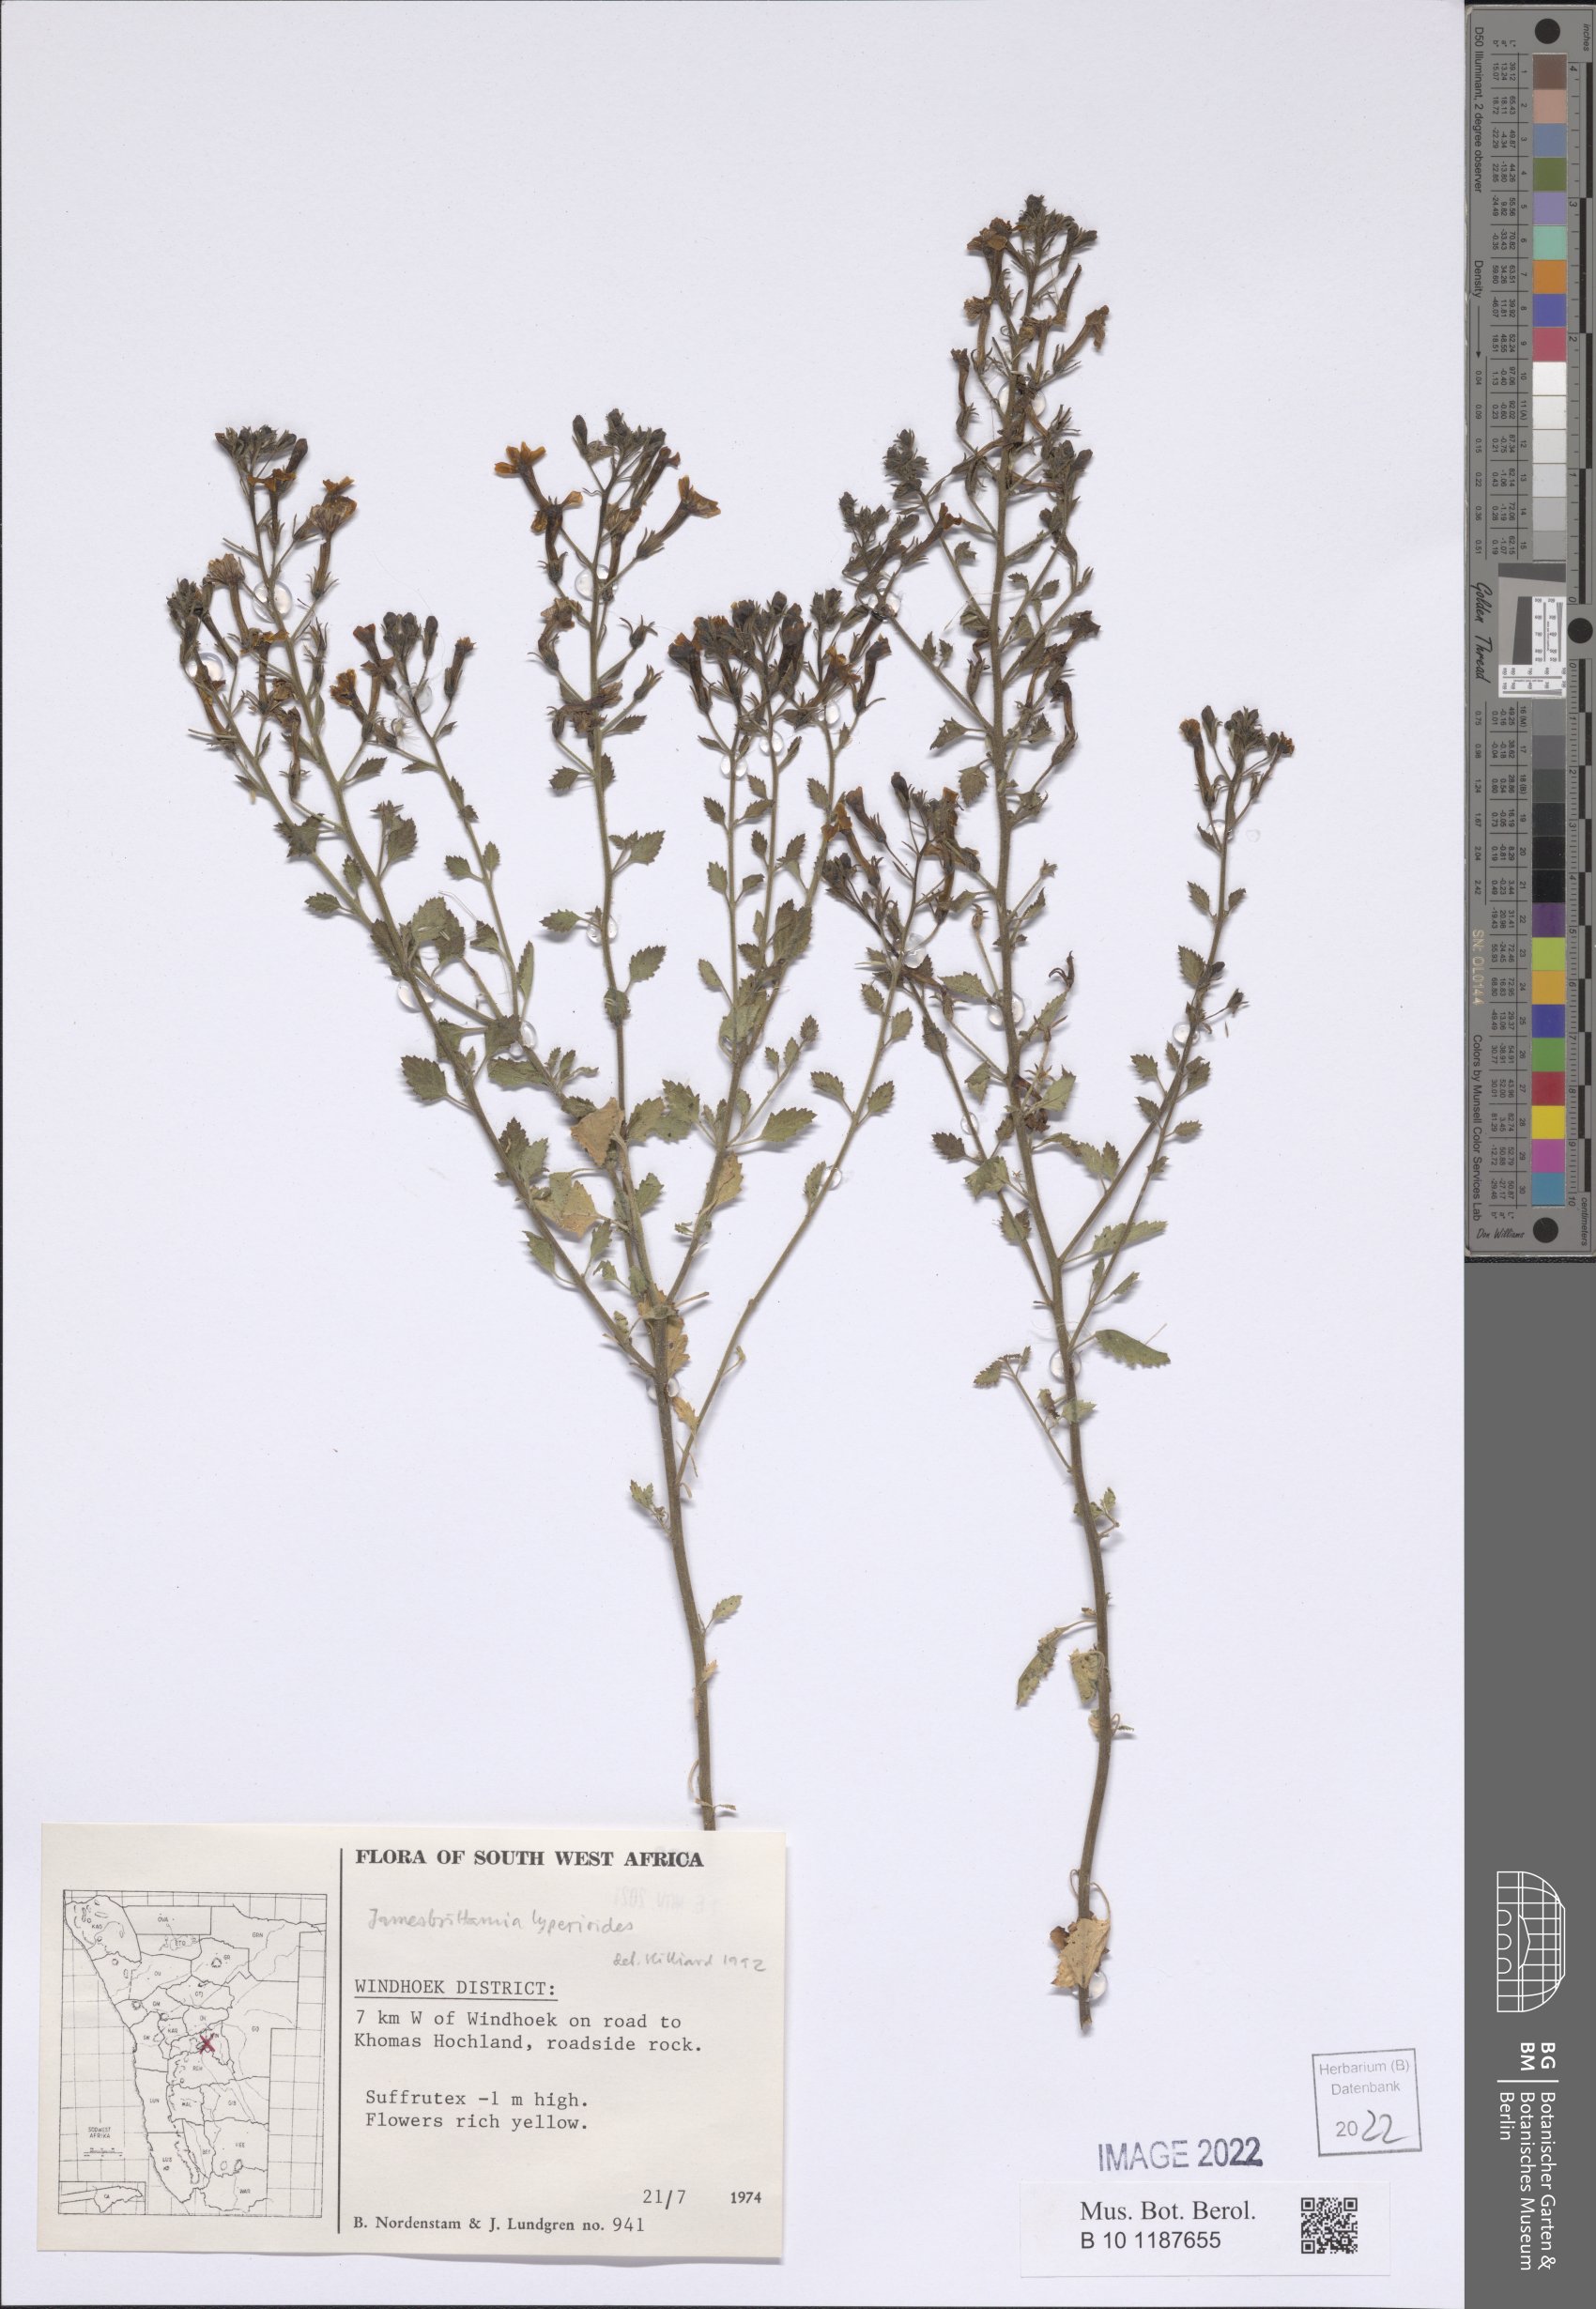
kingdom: Plantae
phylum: Tracheophyta
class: Magnoliopsida
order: Lamiales
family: Scrophulariaceae
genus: Jamesbrittenia
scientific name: Jamesbrittenia lyperioides
